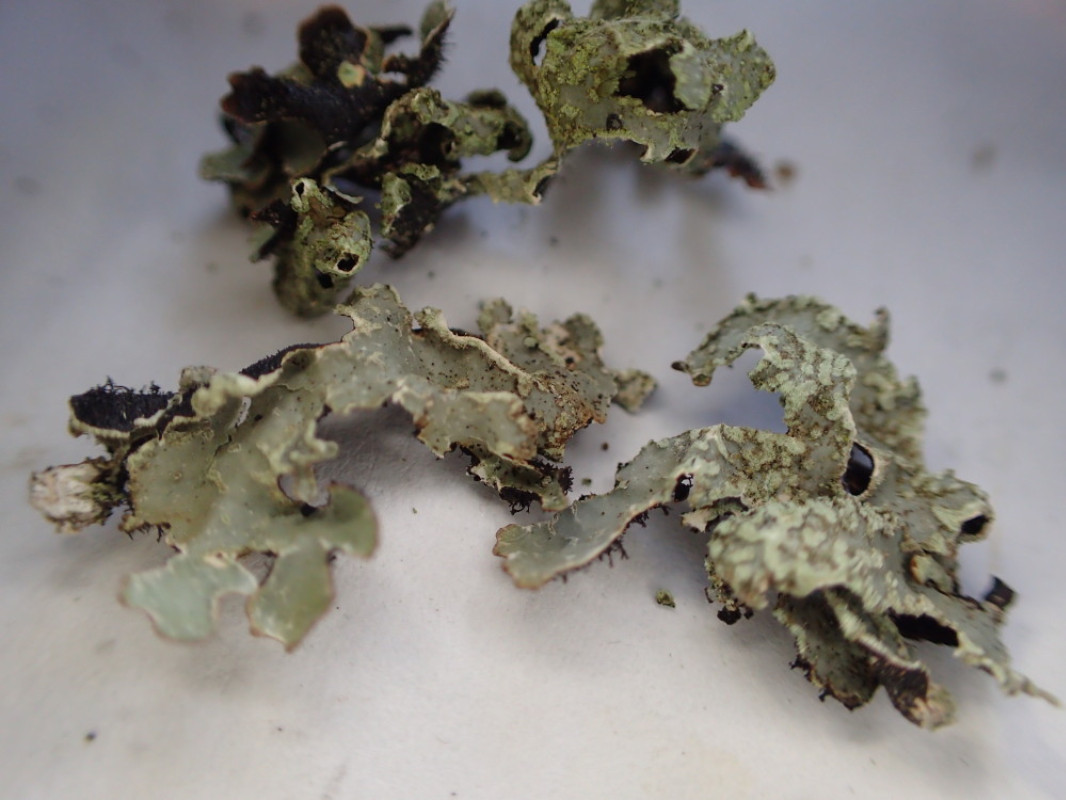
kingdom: Fungi
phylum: Ascomycota
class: Lecanoromycetes
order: Lecanorales
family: Parmeliaceae
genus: Parmelia
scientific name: Parmelia sulcata
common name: rynket skållav
